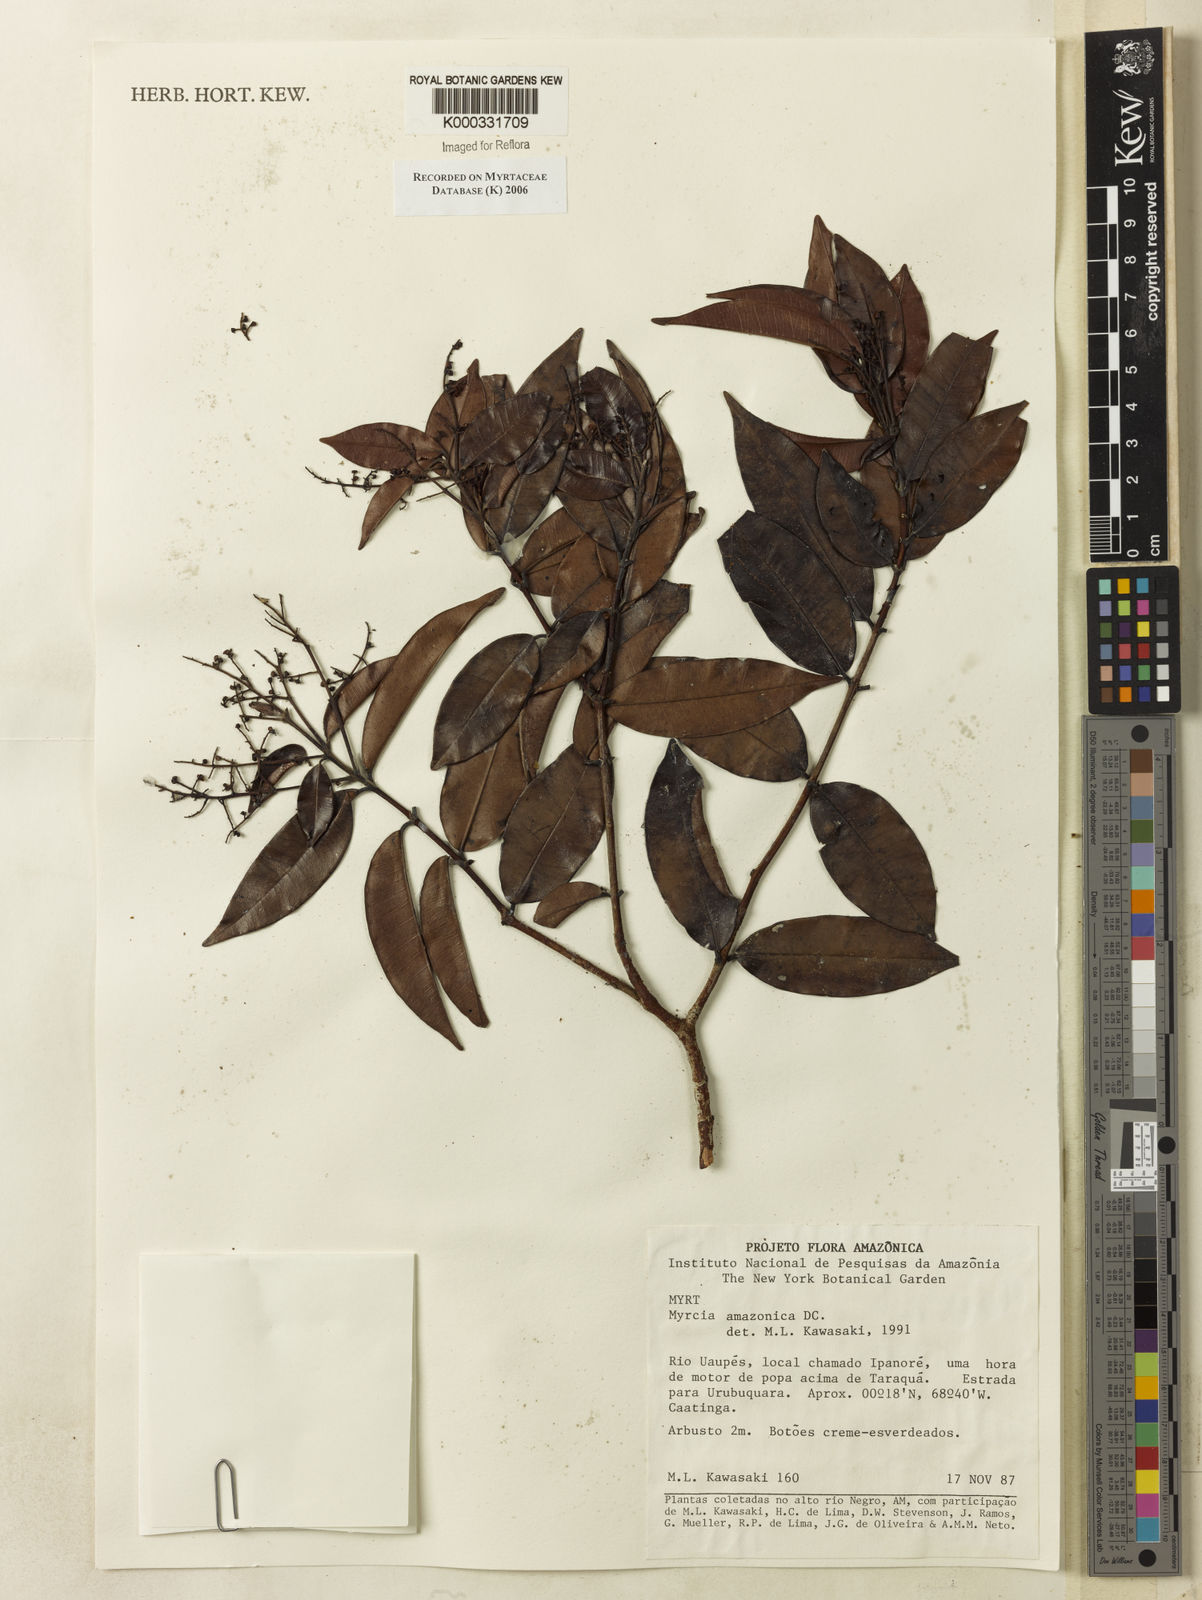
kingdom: Plantae
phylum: Tracheophyta
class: Magnoliopsida
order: Myrtales
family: Myrtaceae
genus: Myrcia
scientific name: Myrcia amazonica
